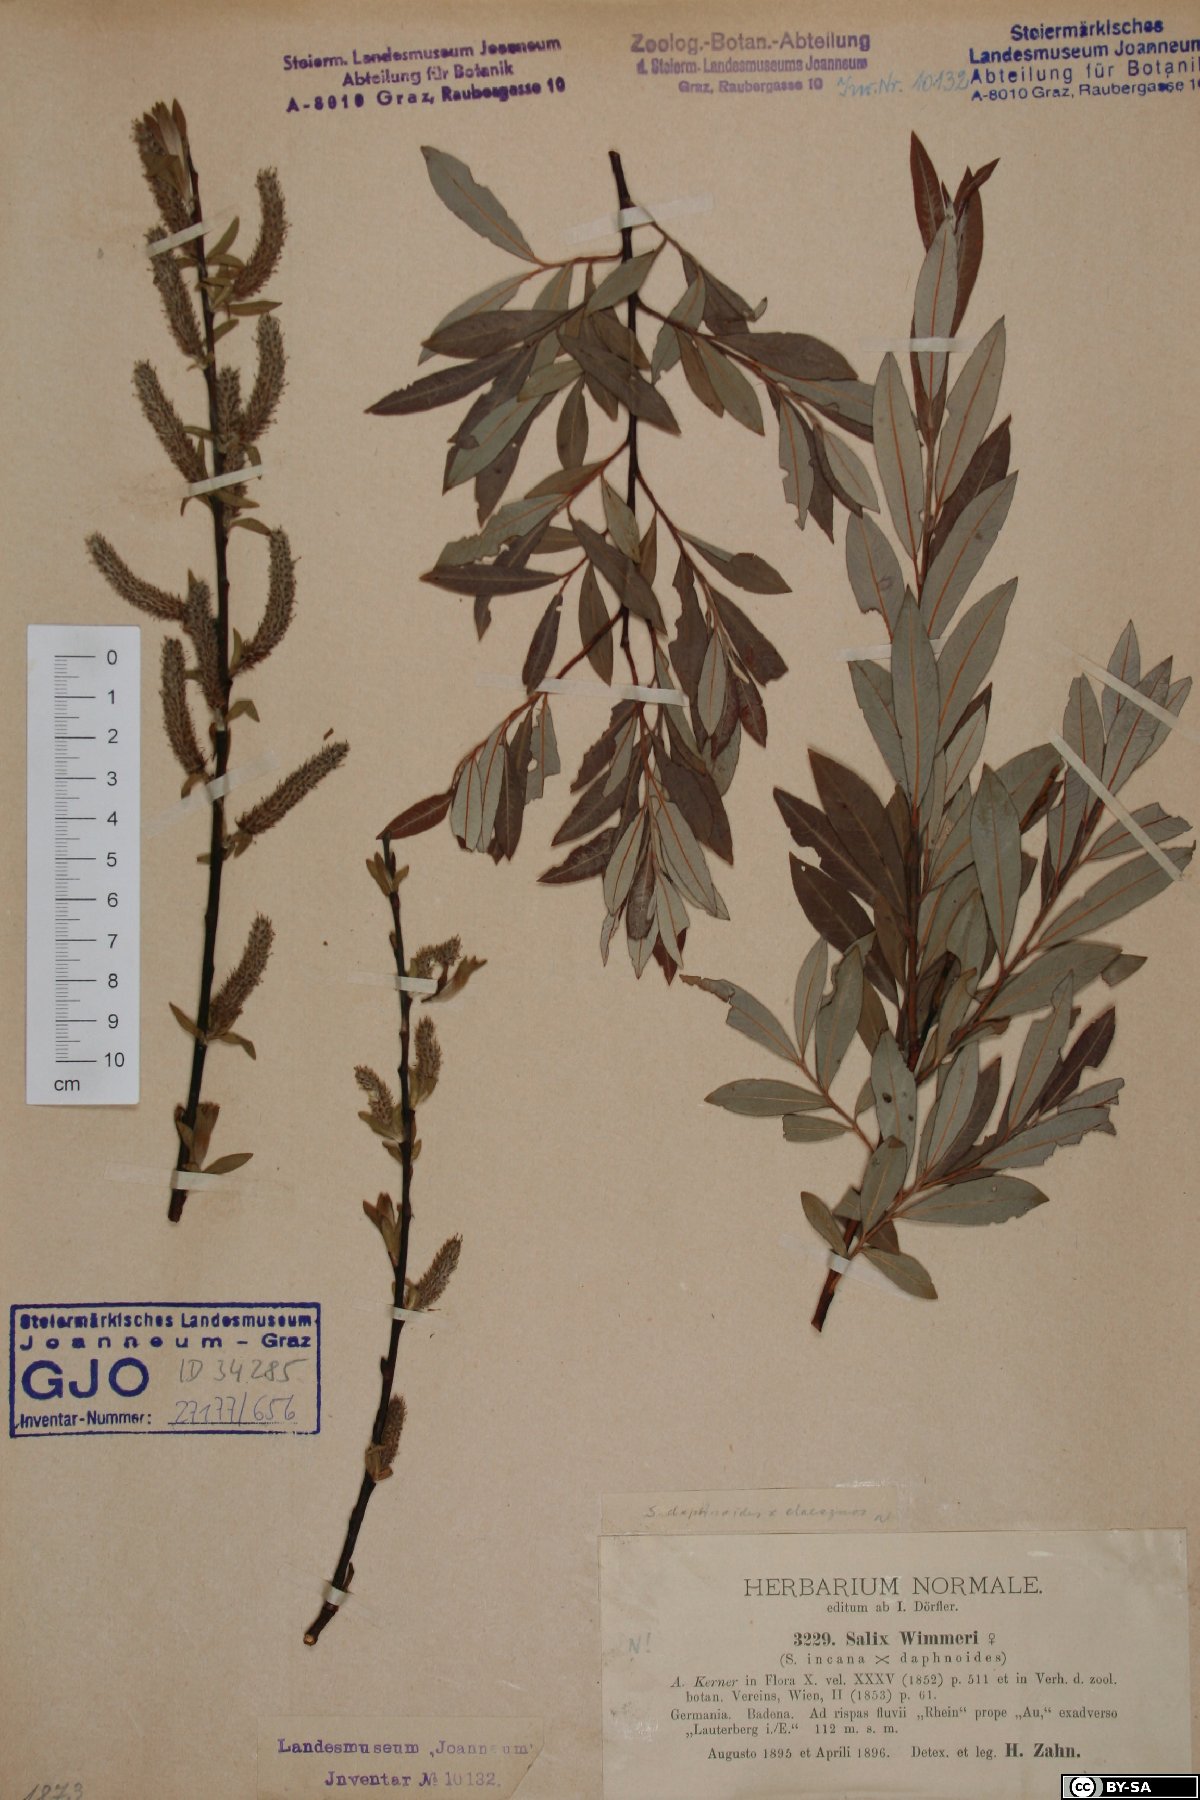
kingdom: Plantae
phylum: Tracheophyta
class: Magnoliopsida
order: Malpighiales
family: Salicaceae
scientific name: Salicaceae
